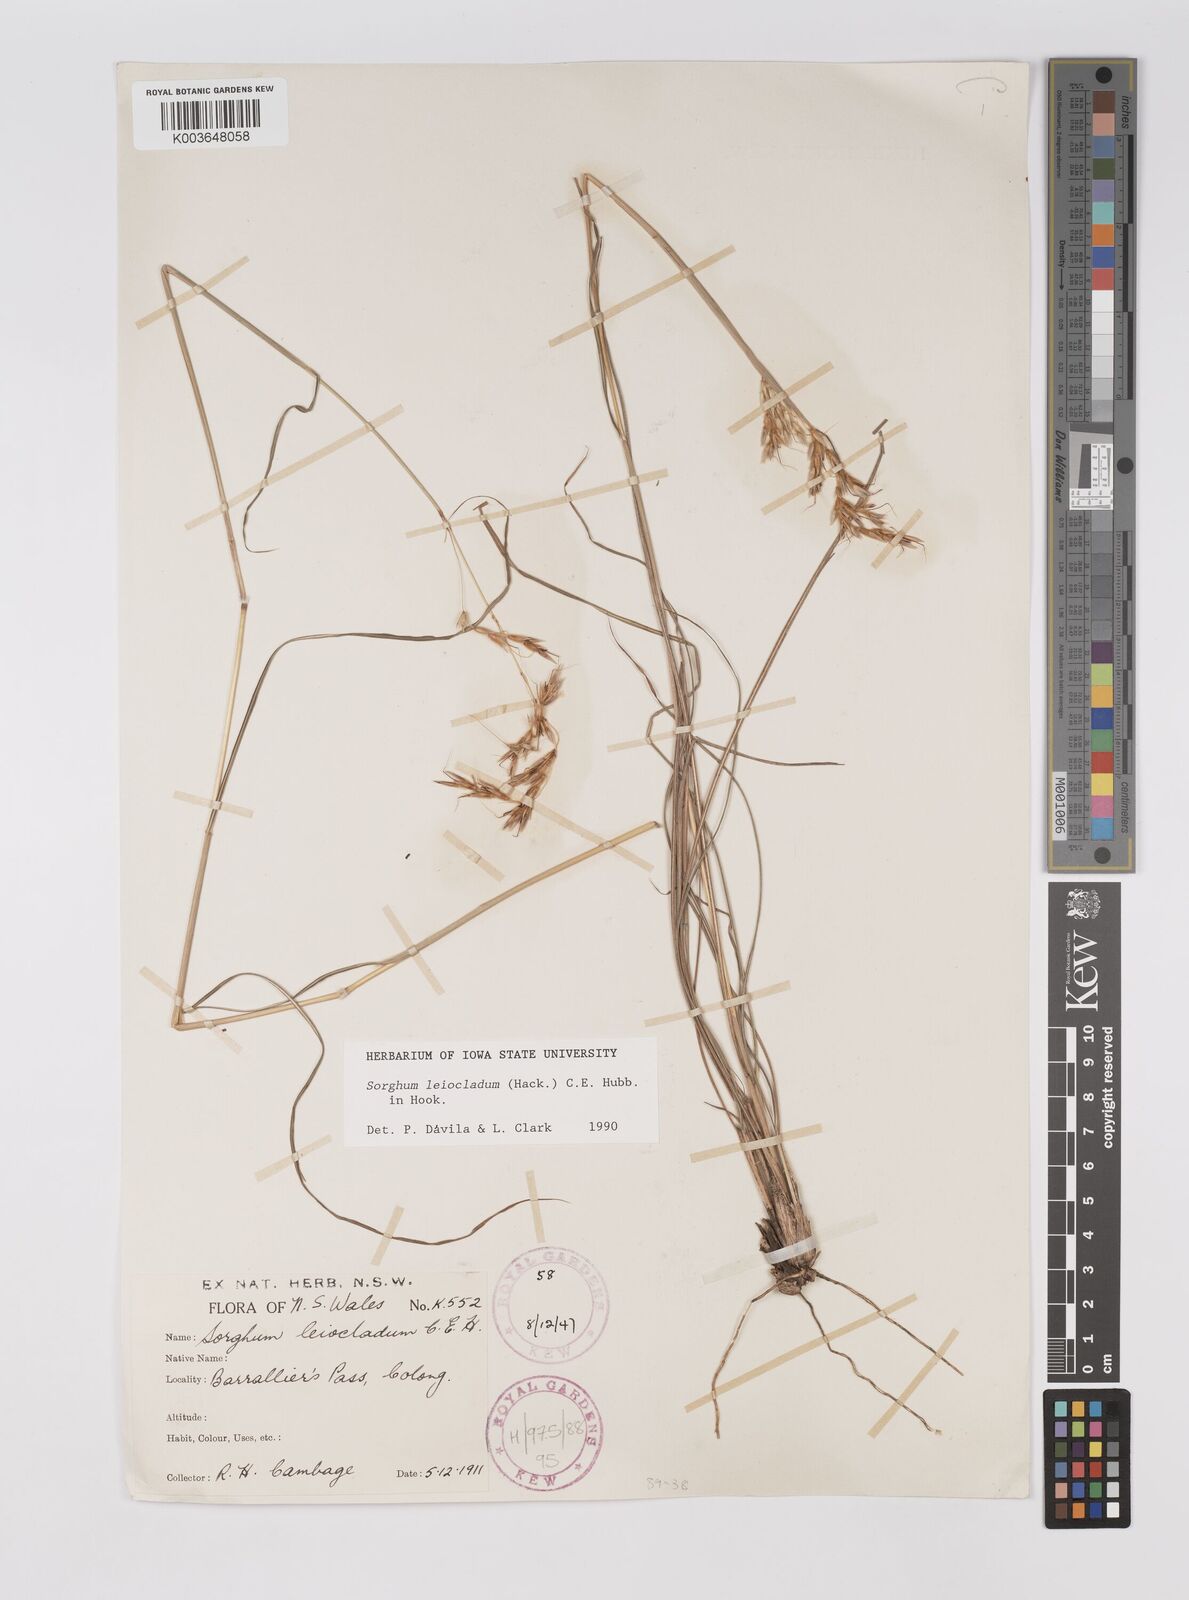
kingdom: Plantae
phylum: Tracheophyta
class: Liliopsida
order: Poales
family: Poaceae
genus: Sarga
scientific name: Sarga leioclada
